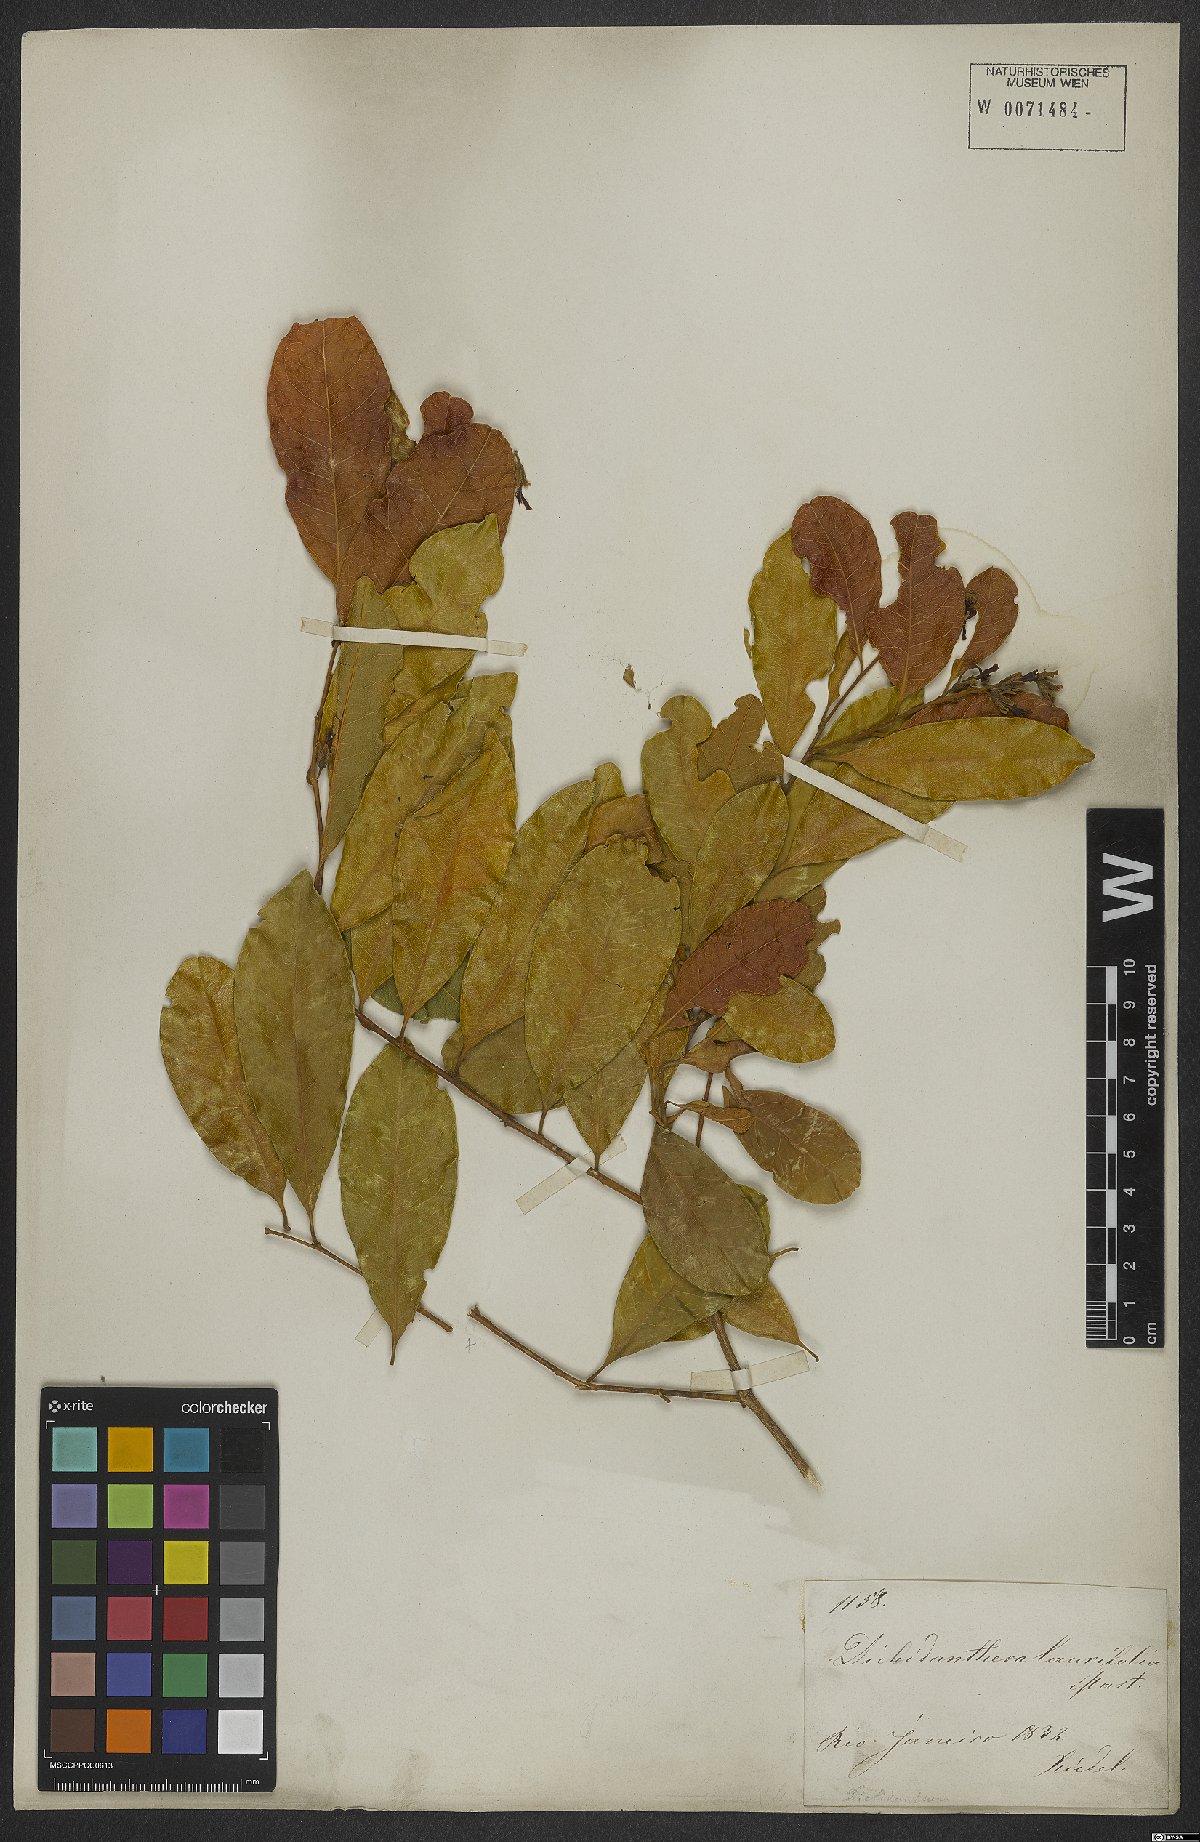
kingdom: Plantae
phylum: Tracheophyta
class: Magnoliopsida
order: Fabales
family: Polygalaceae
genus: Diclidanthera
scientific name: Diclidanthera laurifolia
